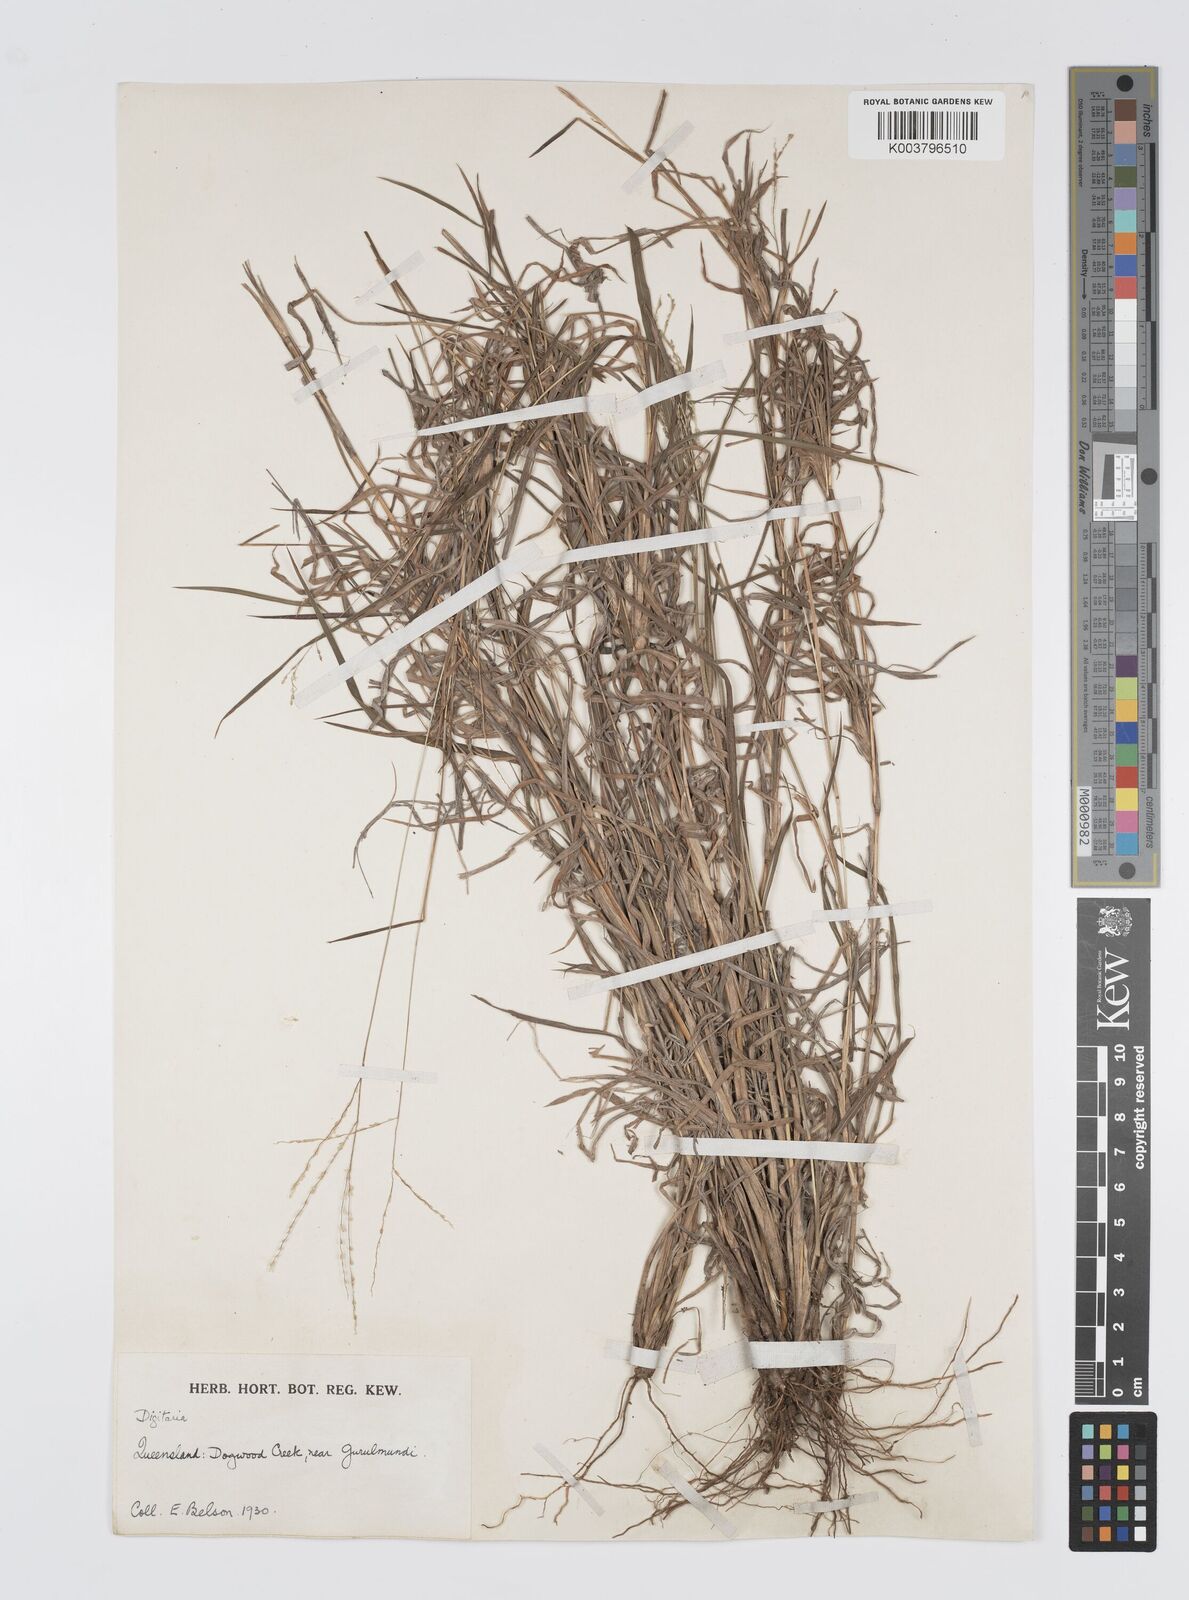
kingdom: Plantae
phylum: Tracheophyta
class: Liliopsida
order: Poales
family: Poaceae
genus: Digitaria
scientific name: Digitaria orbata
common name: Crabgrass
